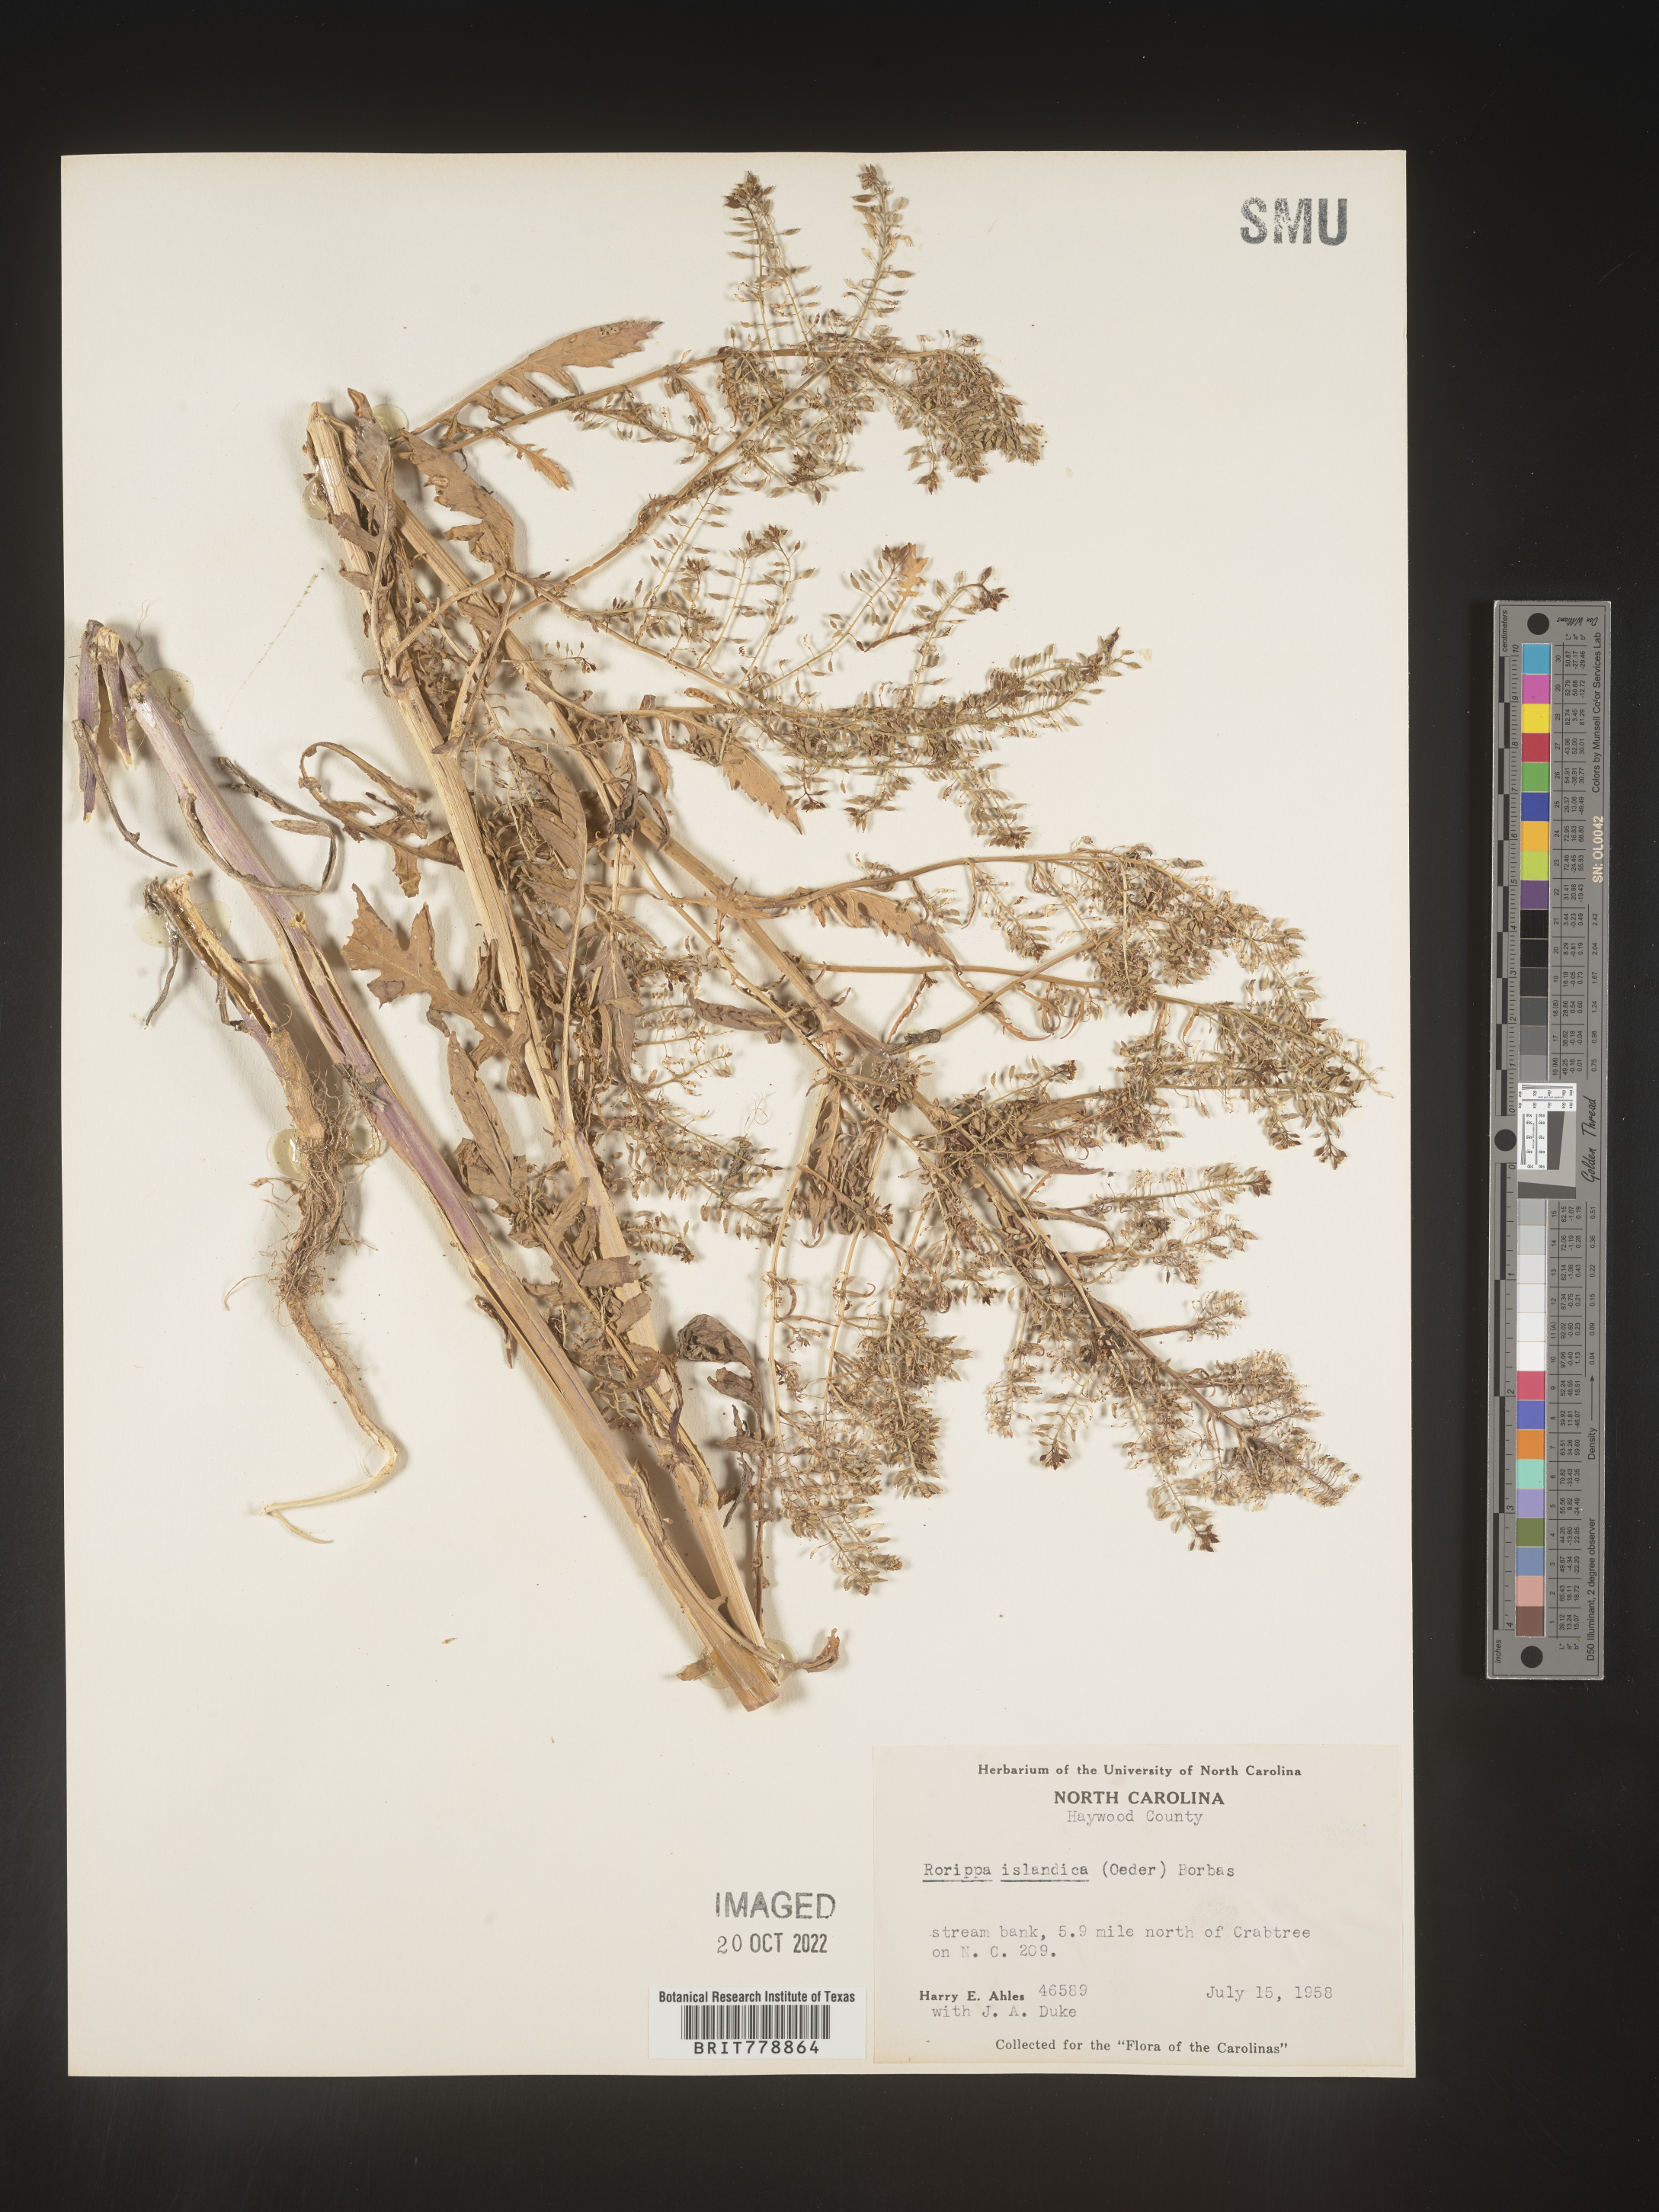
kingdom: Plantae
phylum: Tracheophyta
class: Magnoliopsida
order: Brassicales
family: Brassicaceae
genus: Rorippa
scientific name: Rorippa palustris
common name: Marsh yellow-cress
